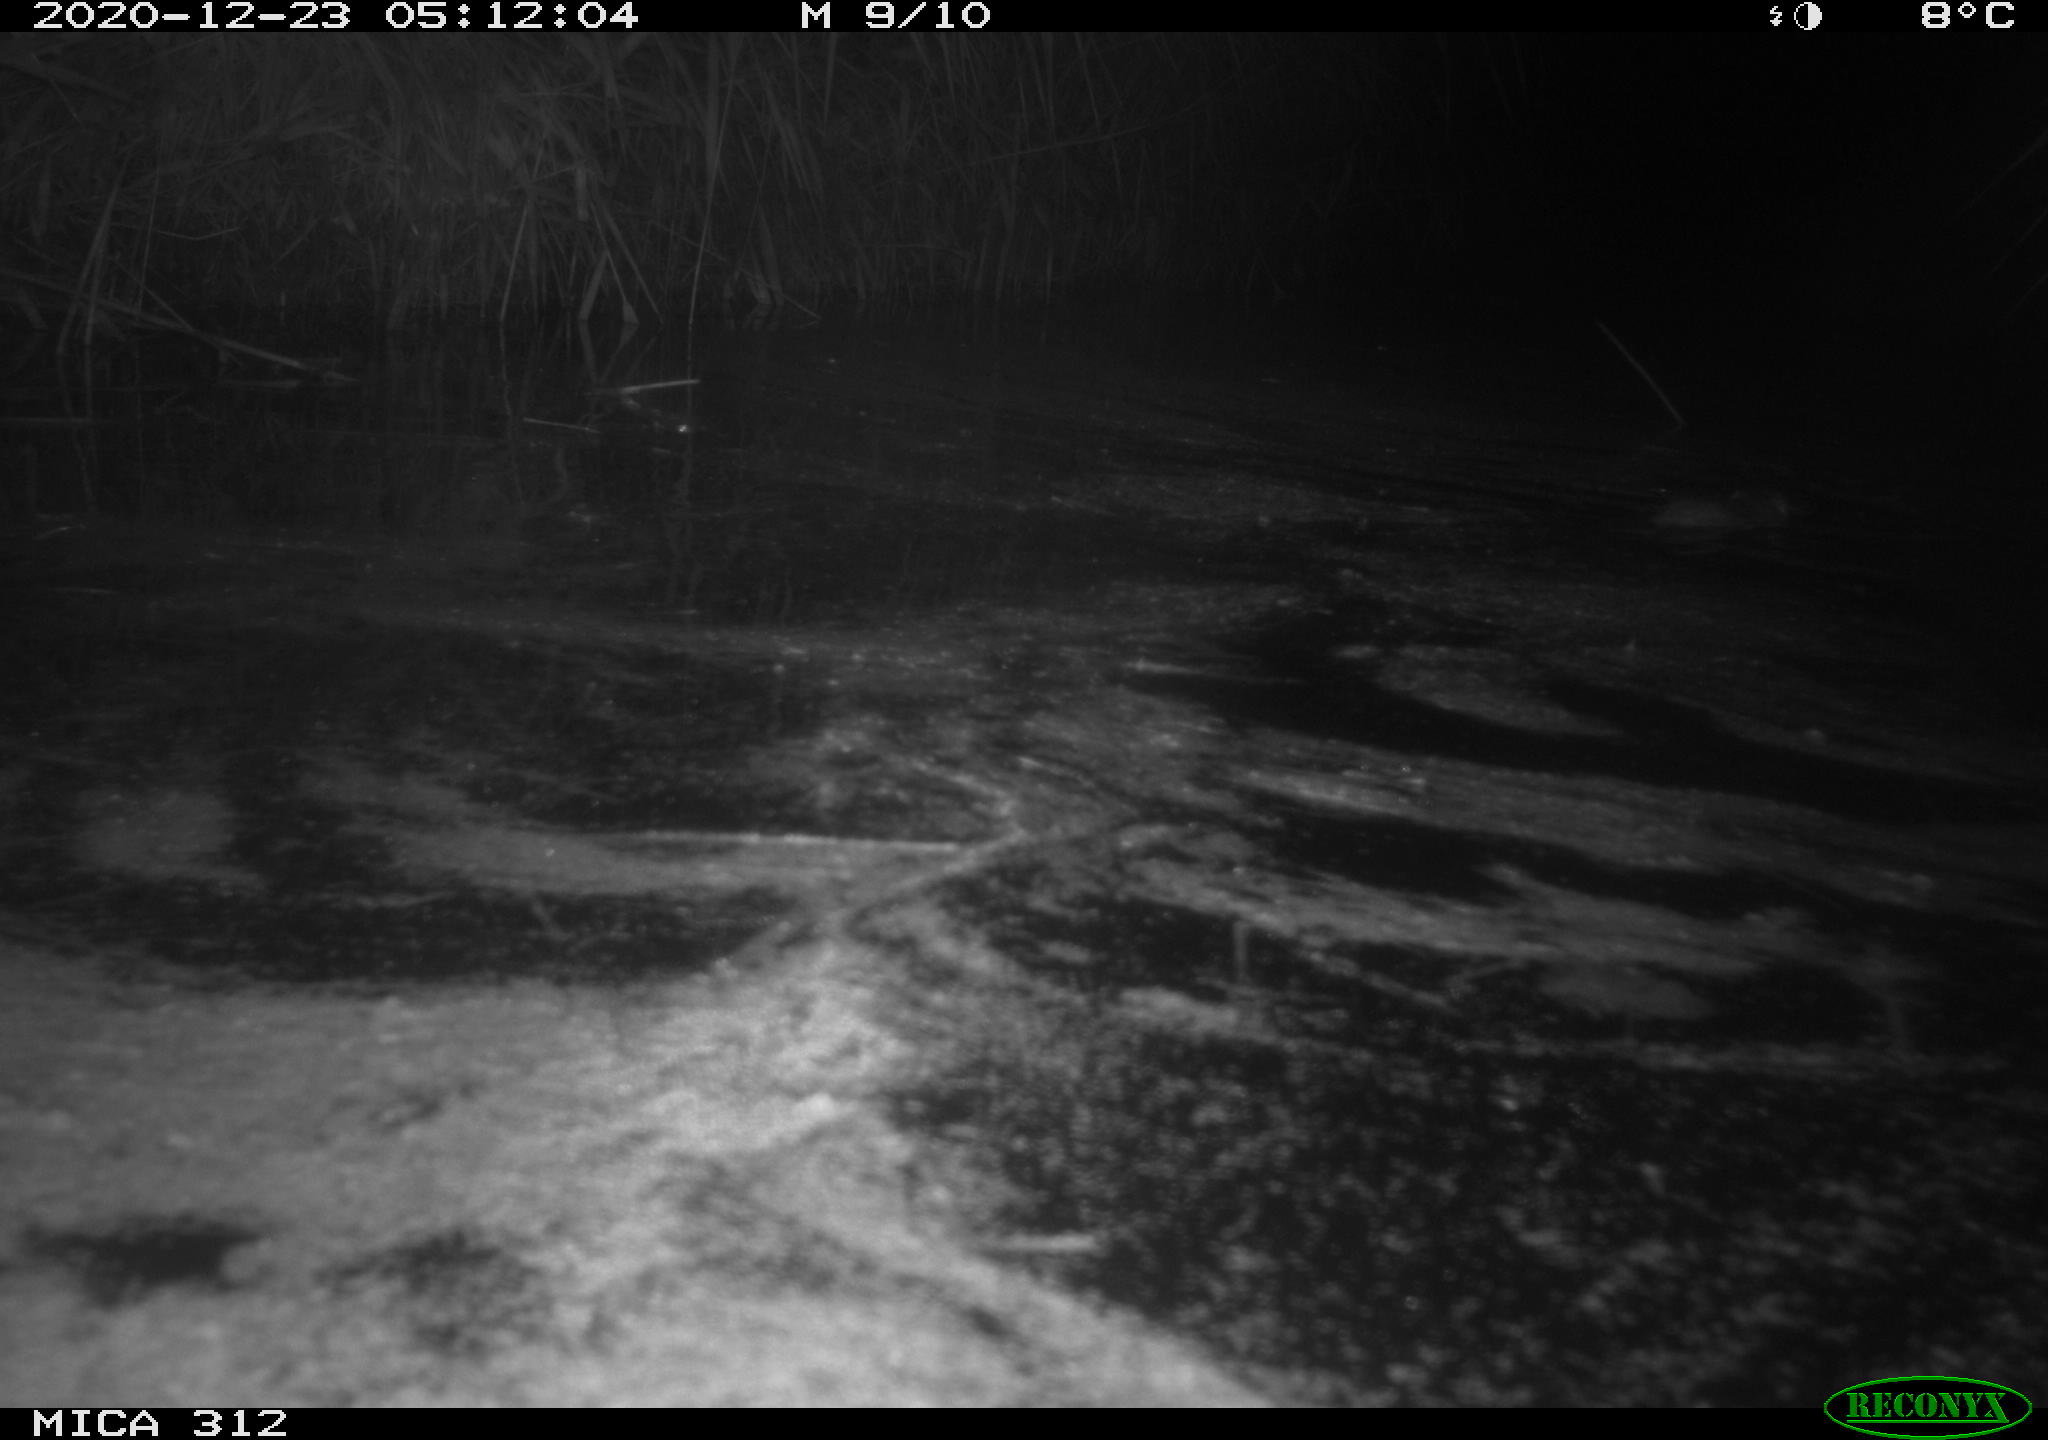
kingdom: Animalia
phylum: Chordata
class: Mammalia
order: Rodentia
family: Muridae
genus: Rattus
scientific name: Rattus norvegicus
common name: Brown rat
